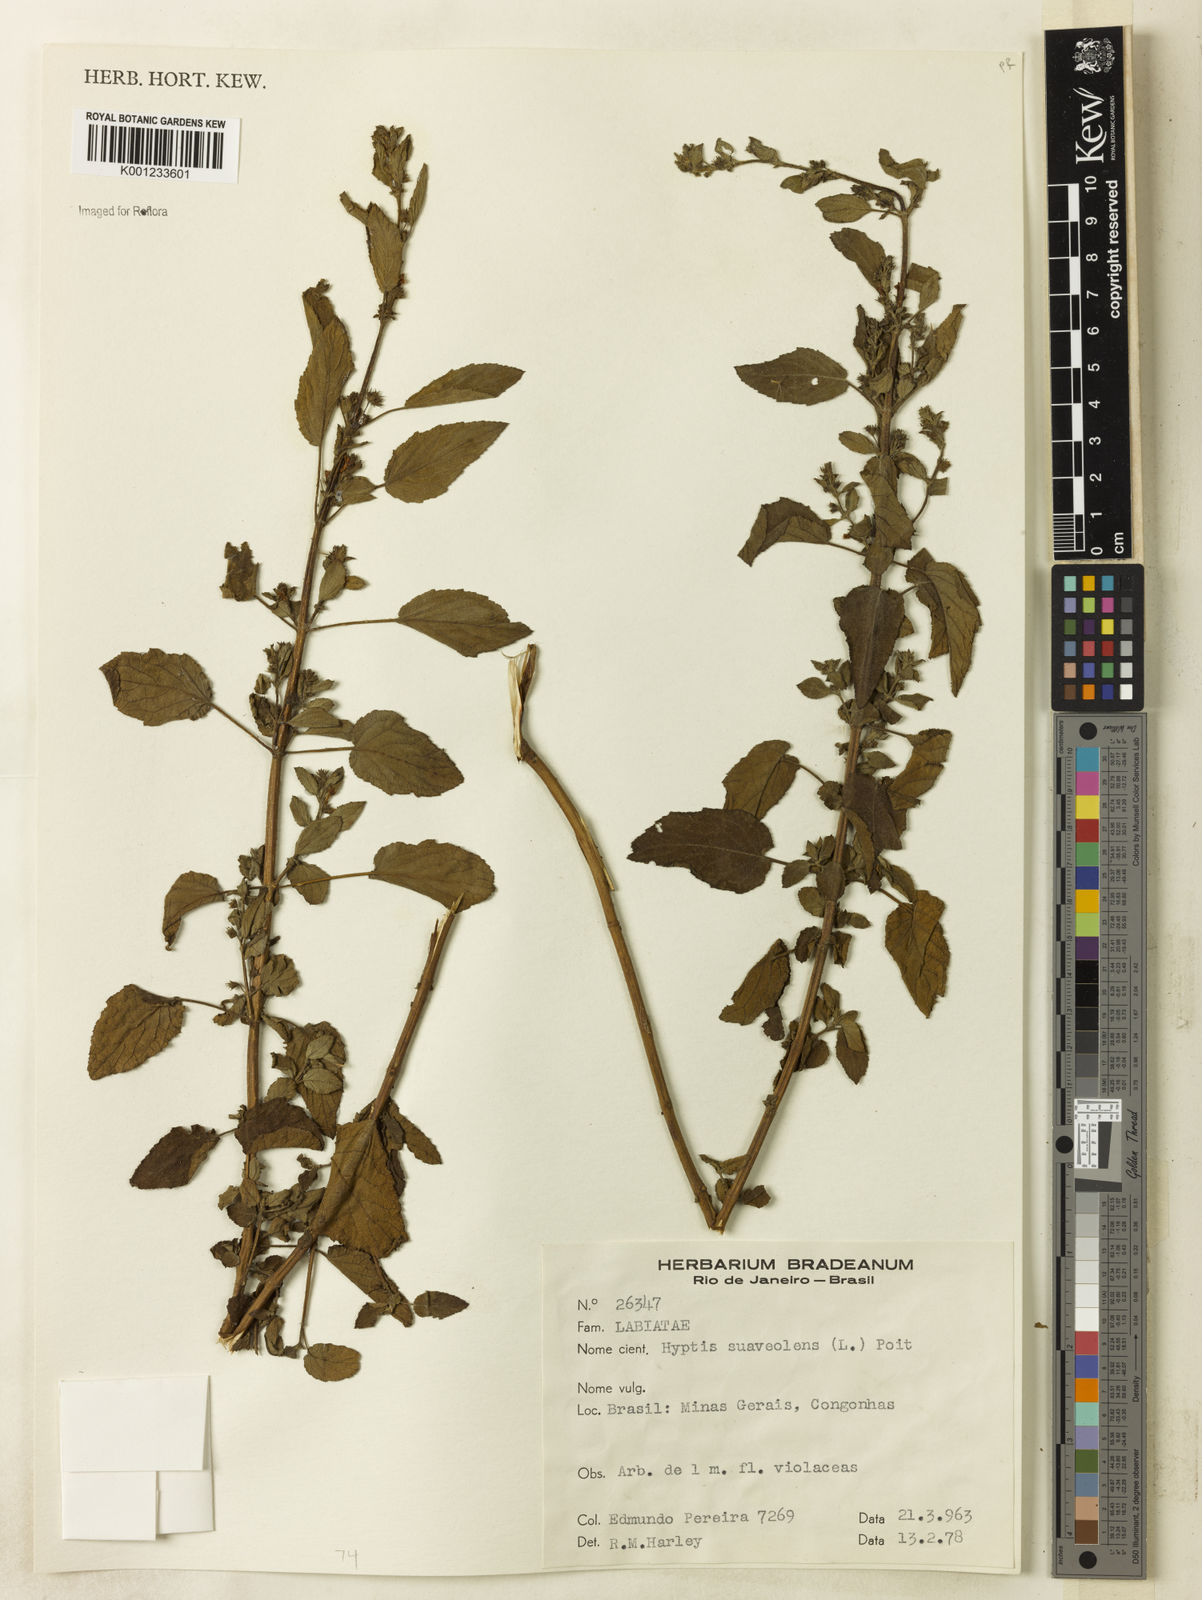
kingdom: Plantae
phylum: Tracheophyta
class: Magnoliopsida
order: Lamiales
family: Lamiaceae
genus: Mesosphaerum
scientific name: Mesosphaerum suaveolens
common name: Pignut
